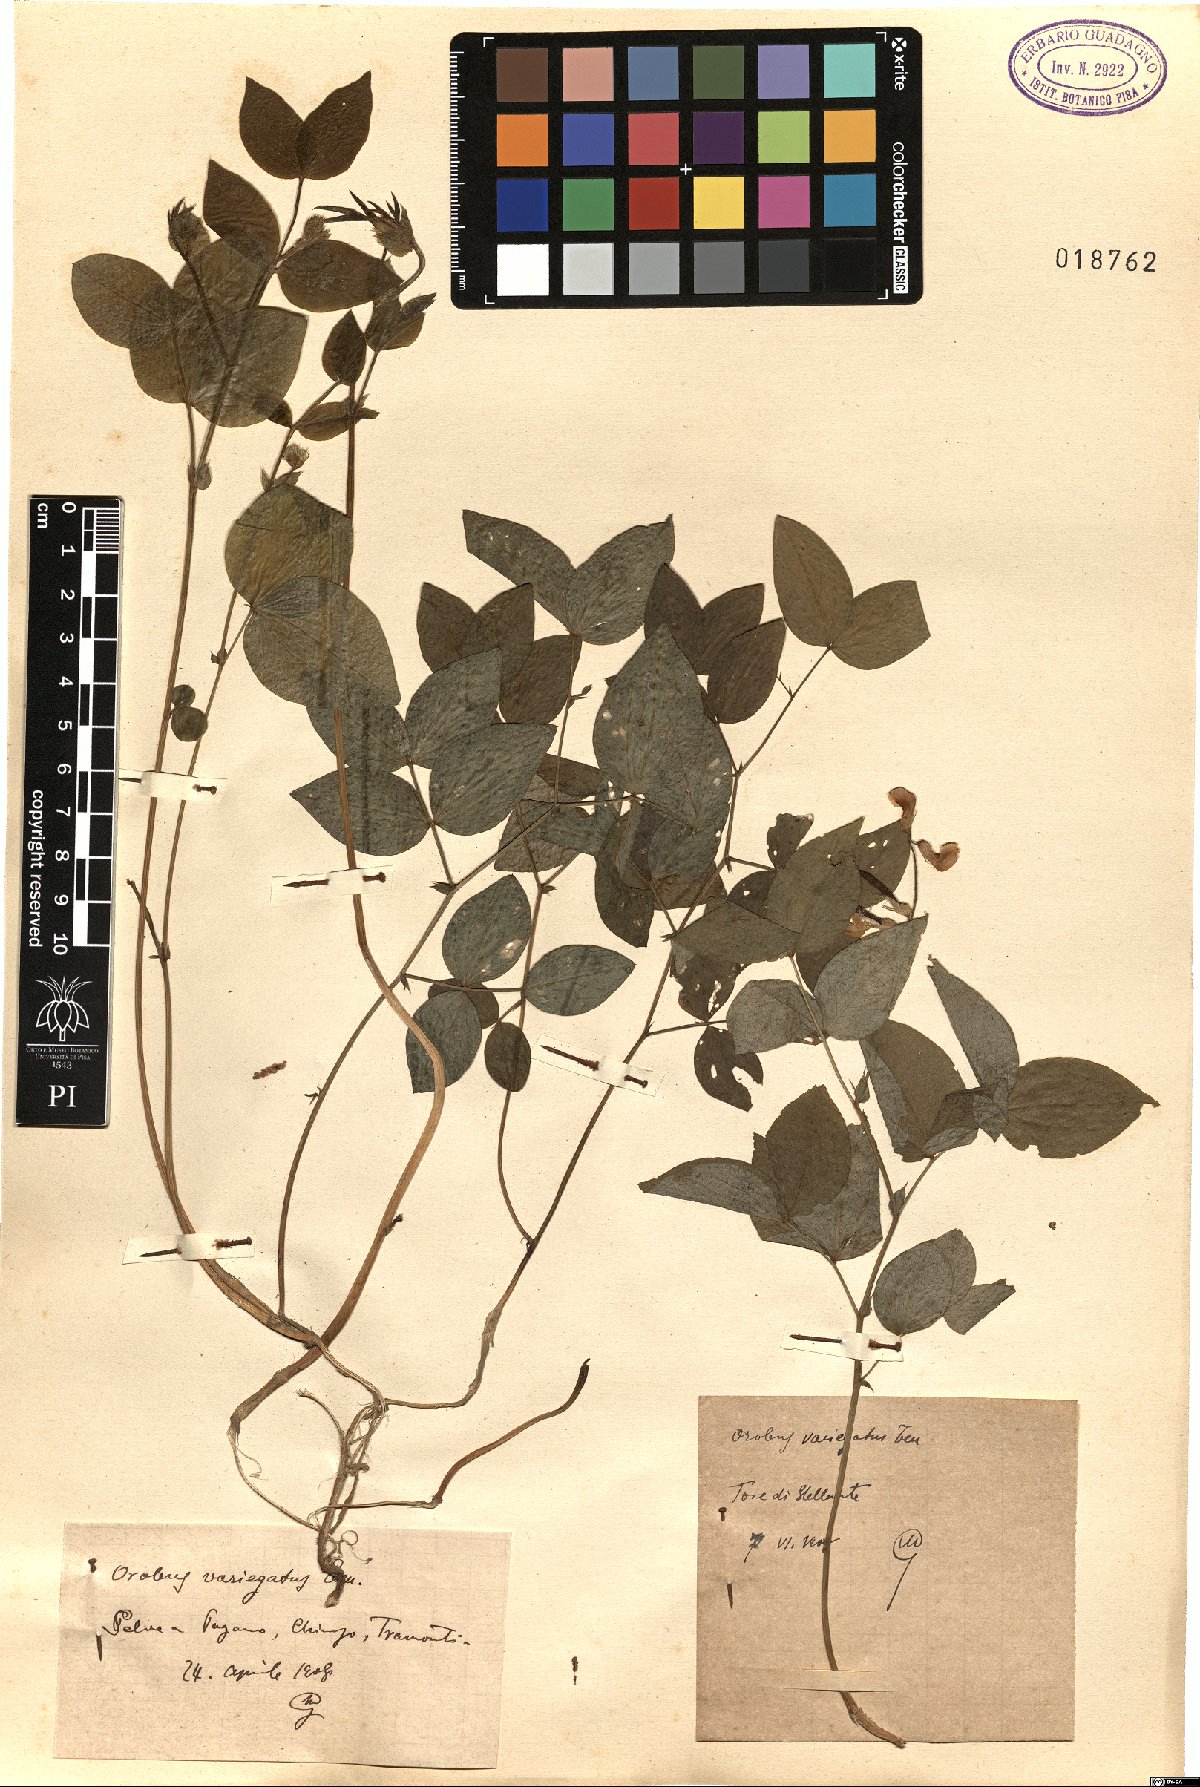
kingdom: Plantae
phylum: Tracheophyta
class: Magnoliopsida
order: Fabales
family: Fabaceae
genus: Lathyrus
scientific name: Lathyrus venetus
